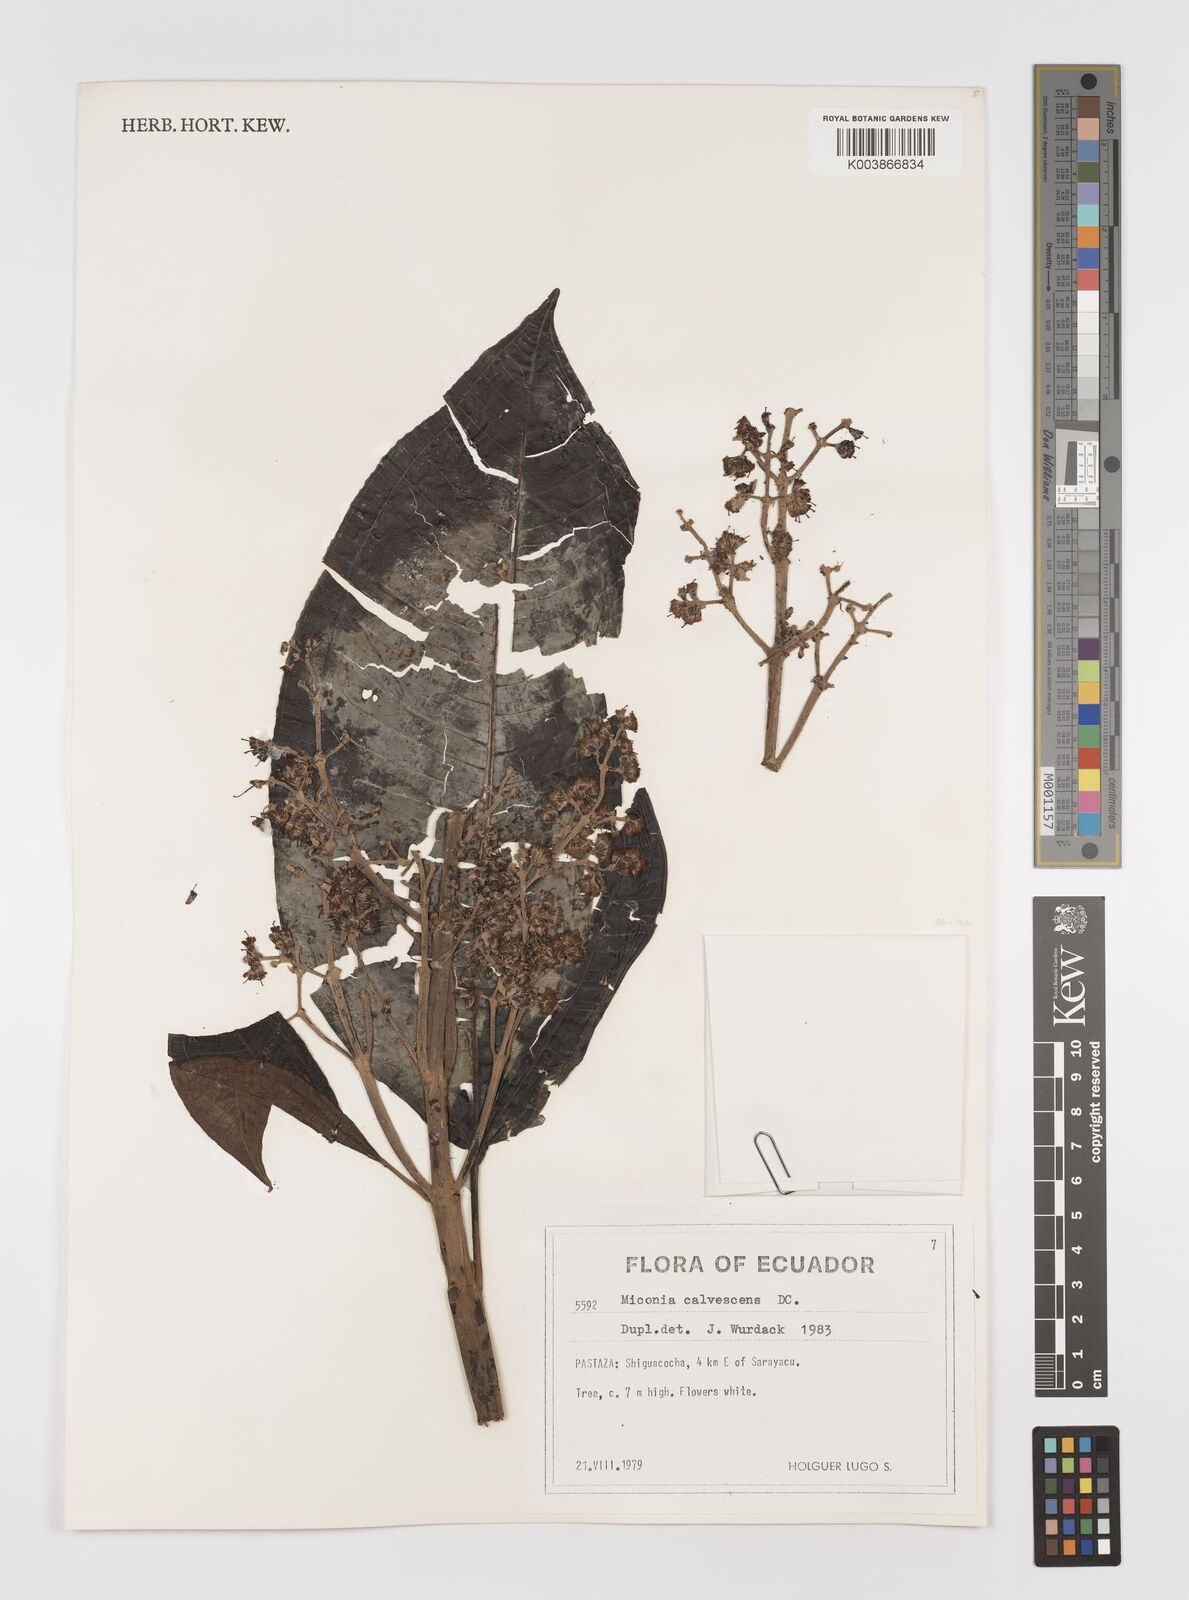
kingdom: Plantae
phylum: Tracheophyta
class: Magnoliopsida
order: Myrtales
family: Melastomataceae
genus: Miconia
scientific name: Miconia calvescens
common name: Purple plague
